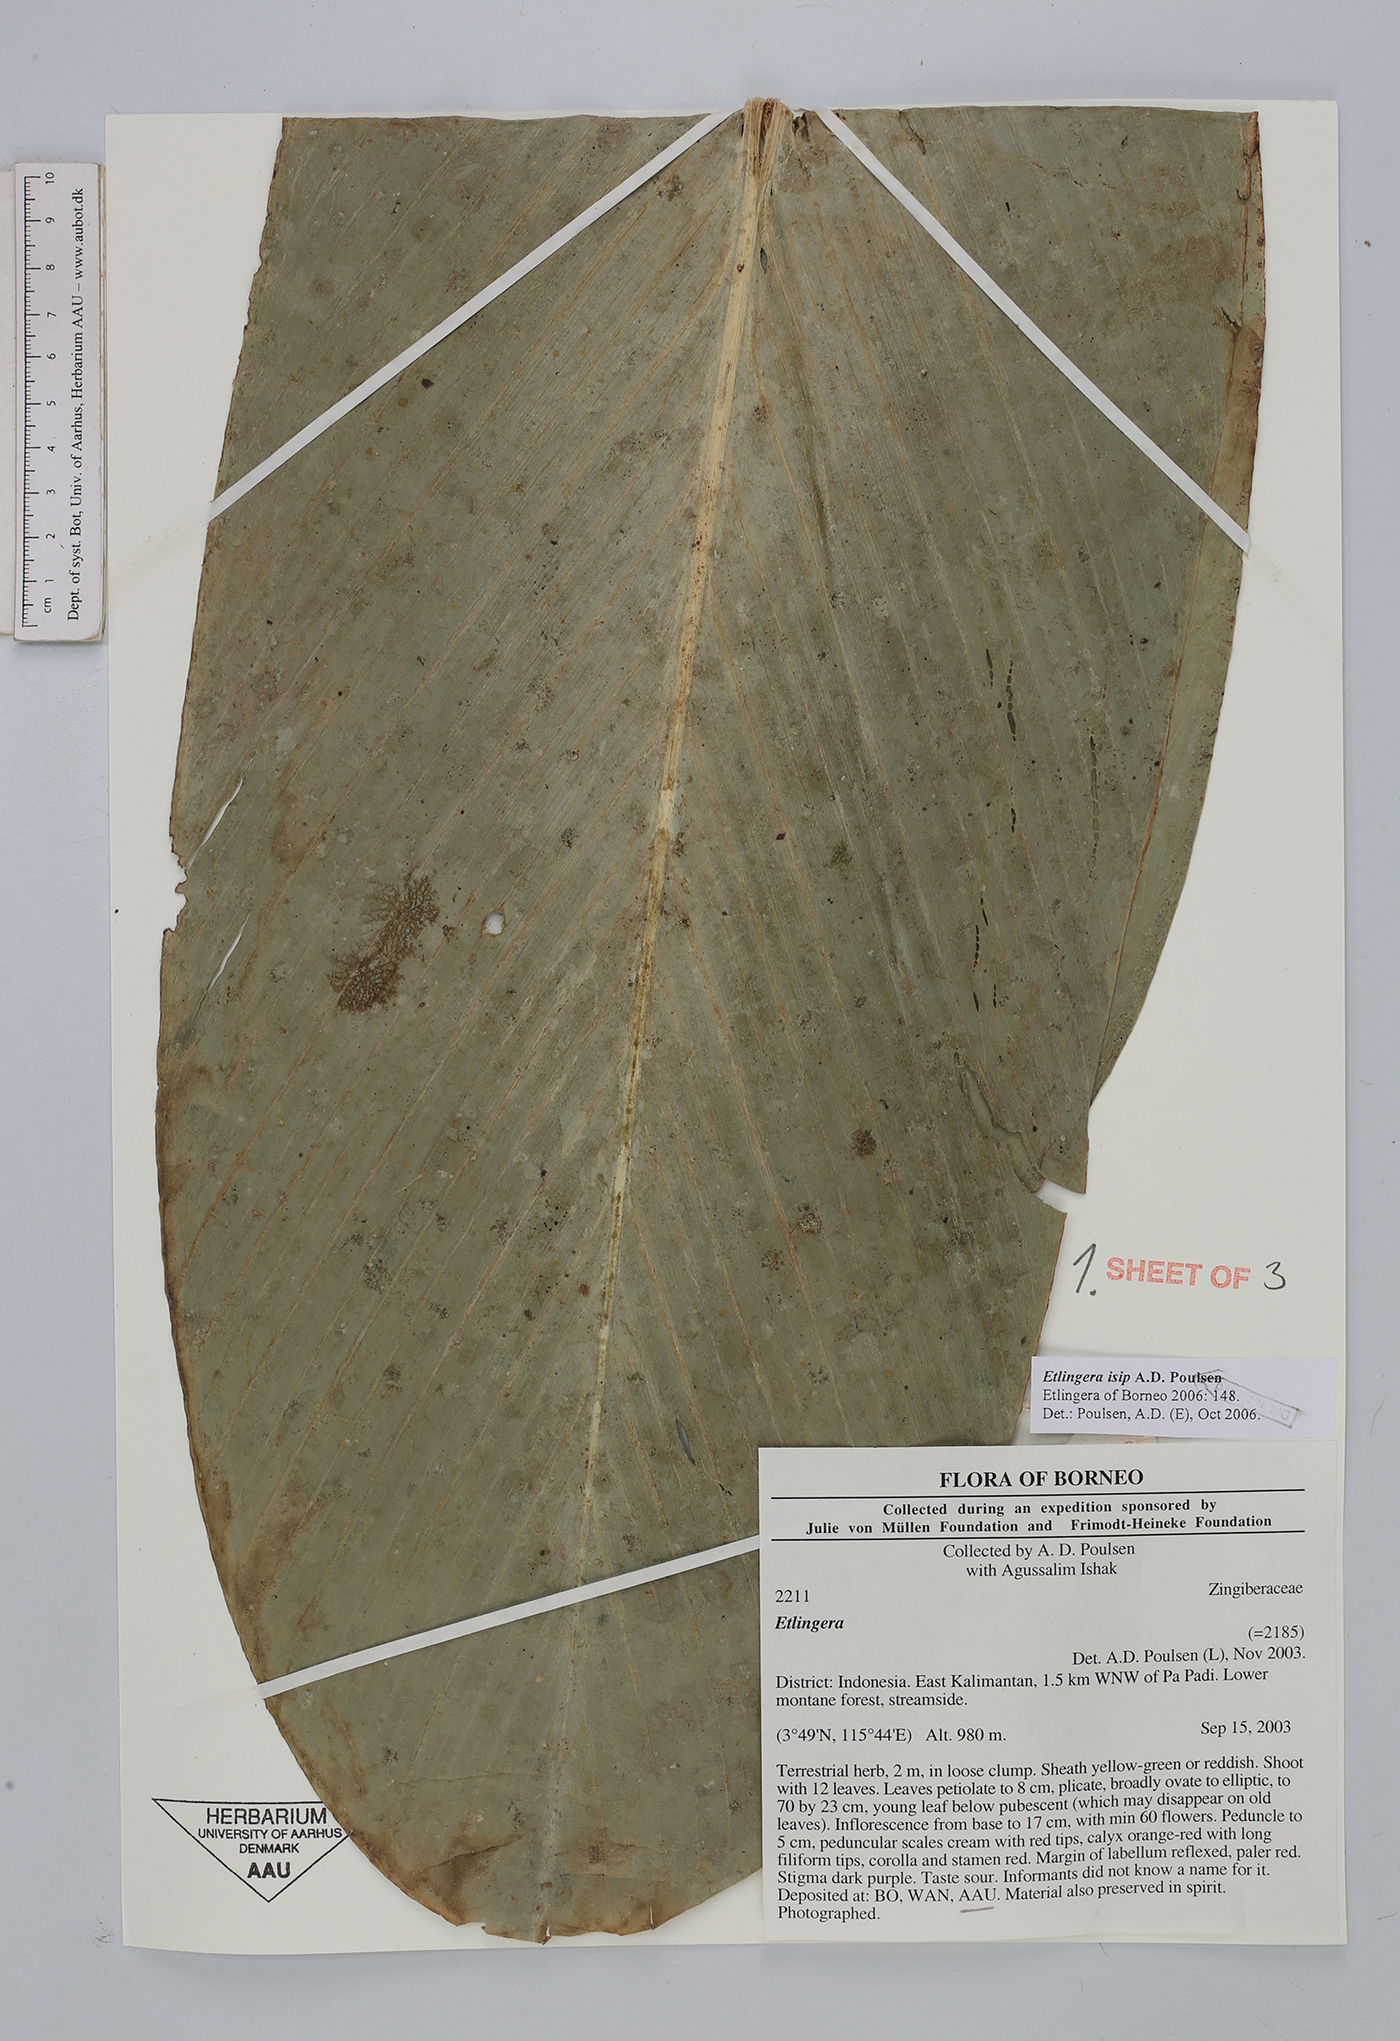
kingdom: Plantae
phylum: Tracheophyta
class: Liliopsida
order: Zingiberales
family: Zingiberaceae
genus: Etlingera
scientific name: Etlingera isip
